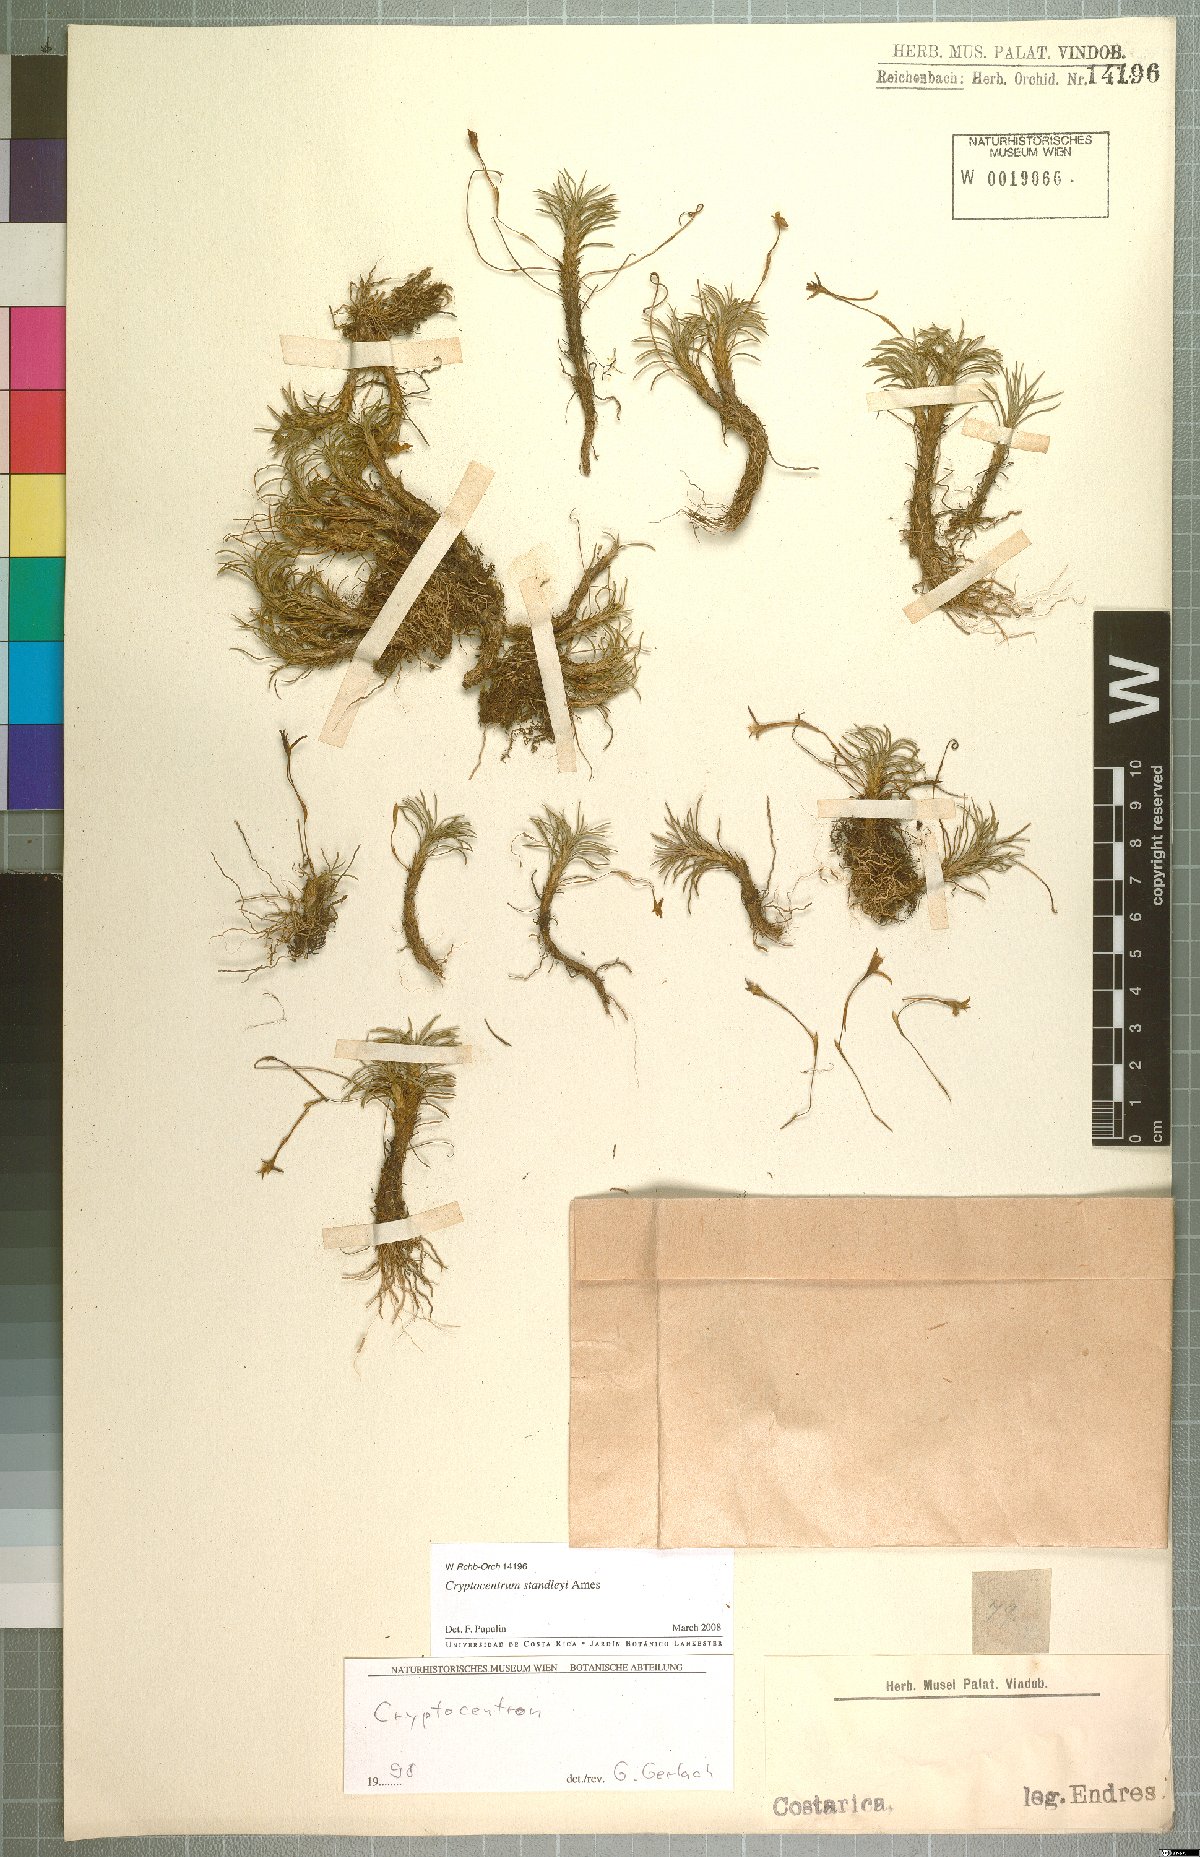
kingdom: Plantae
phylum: Tracheophyta
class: Liliopsida
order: Asparagales
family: Orchidaceae
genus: Maxillaria
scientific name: Maxillaria standleyi
